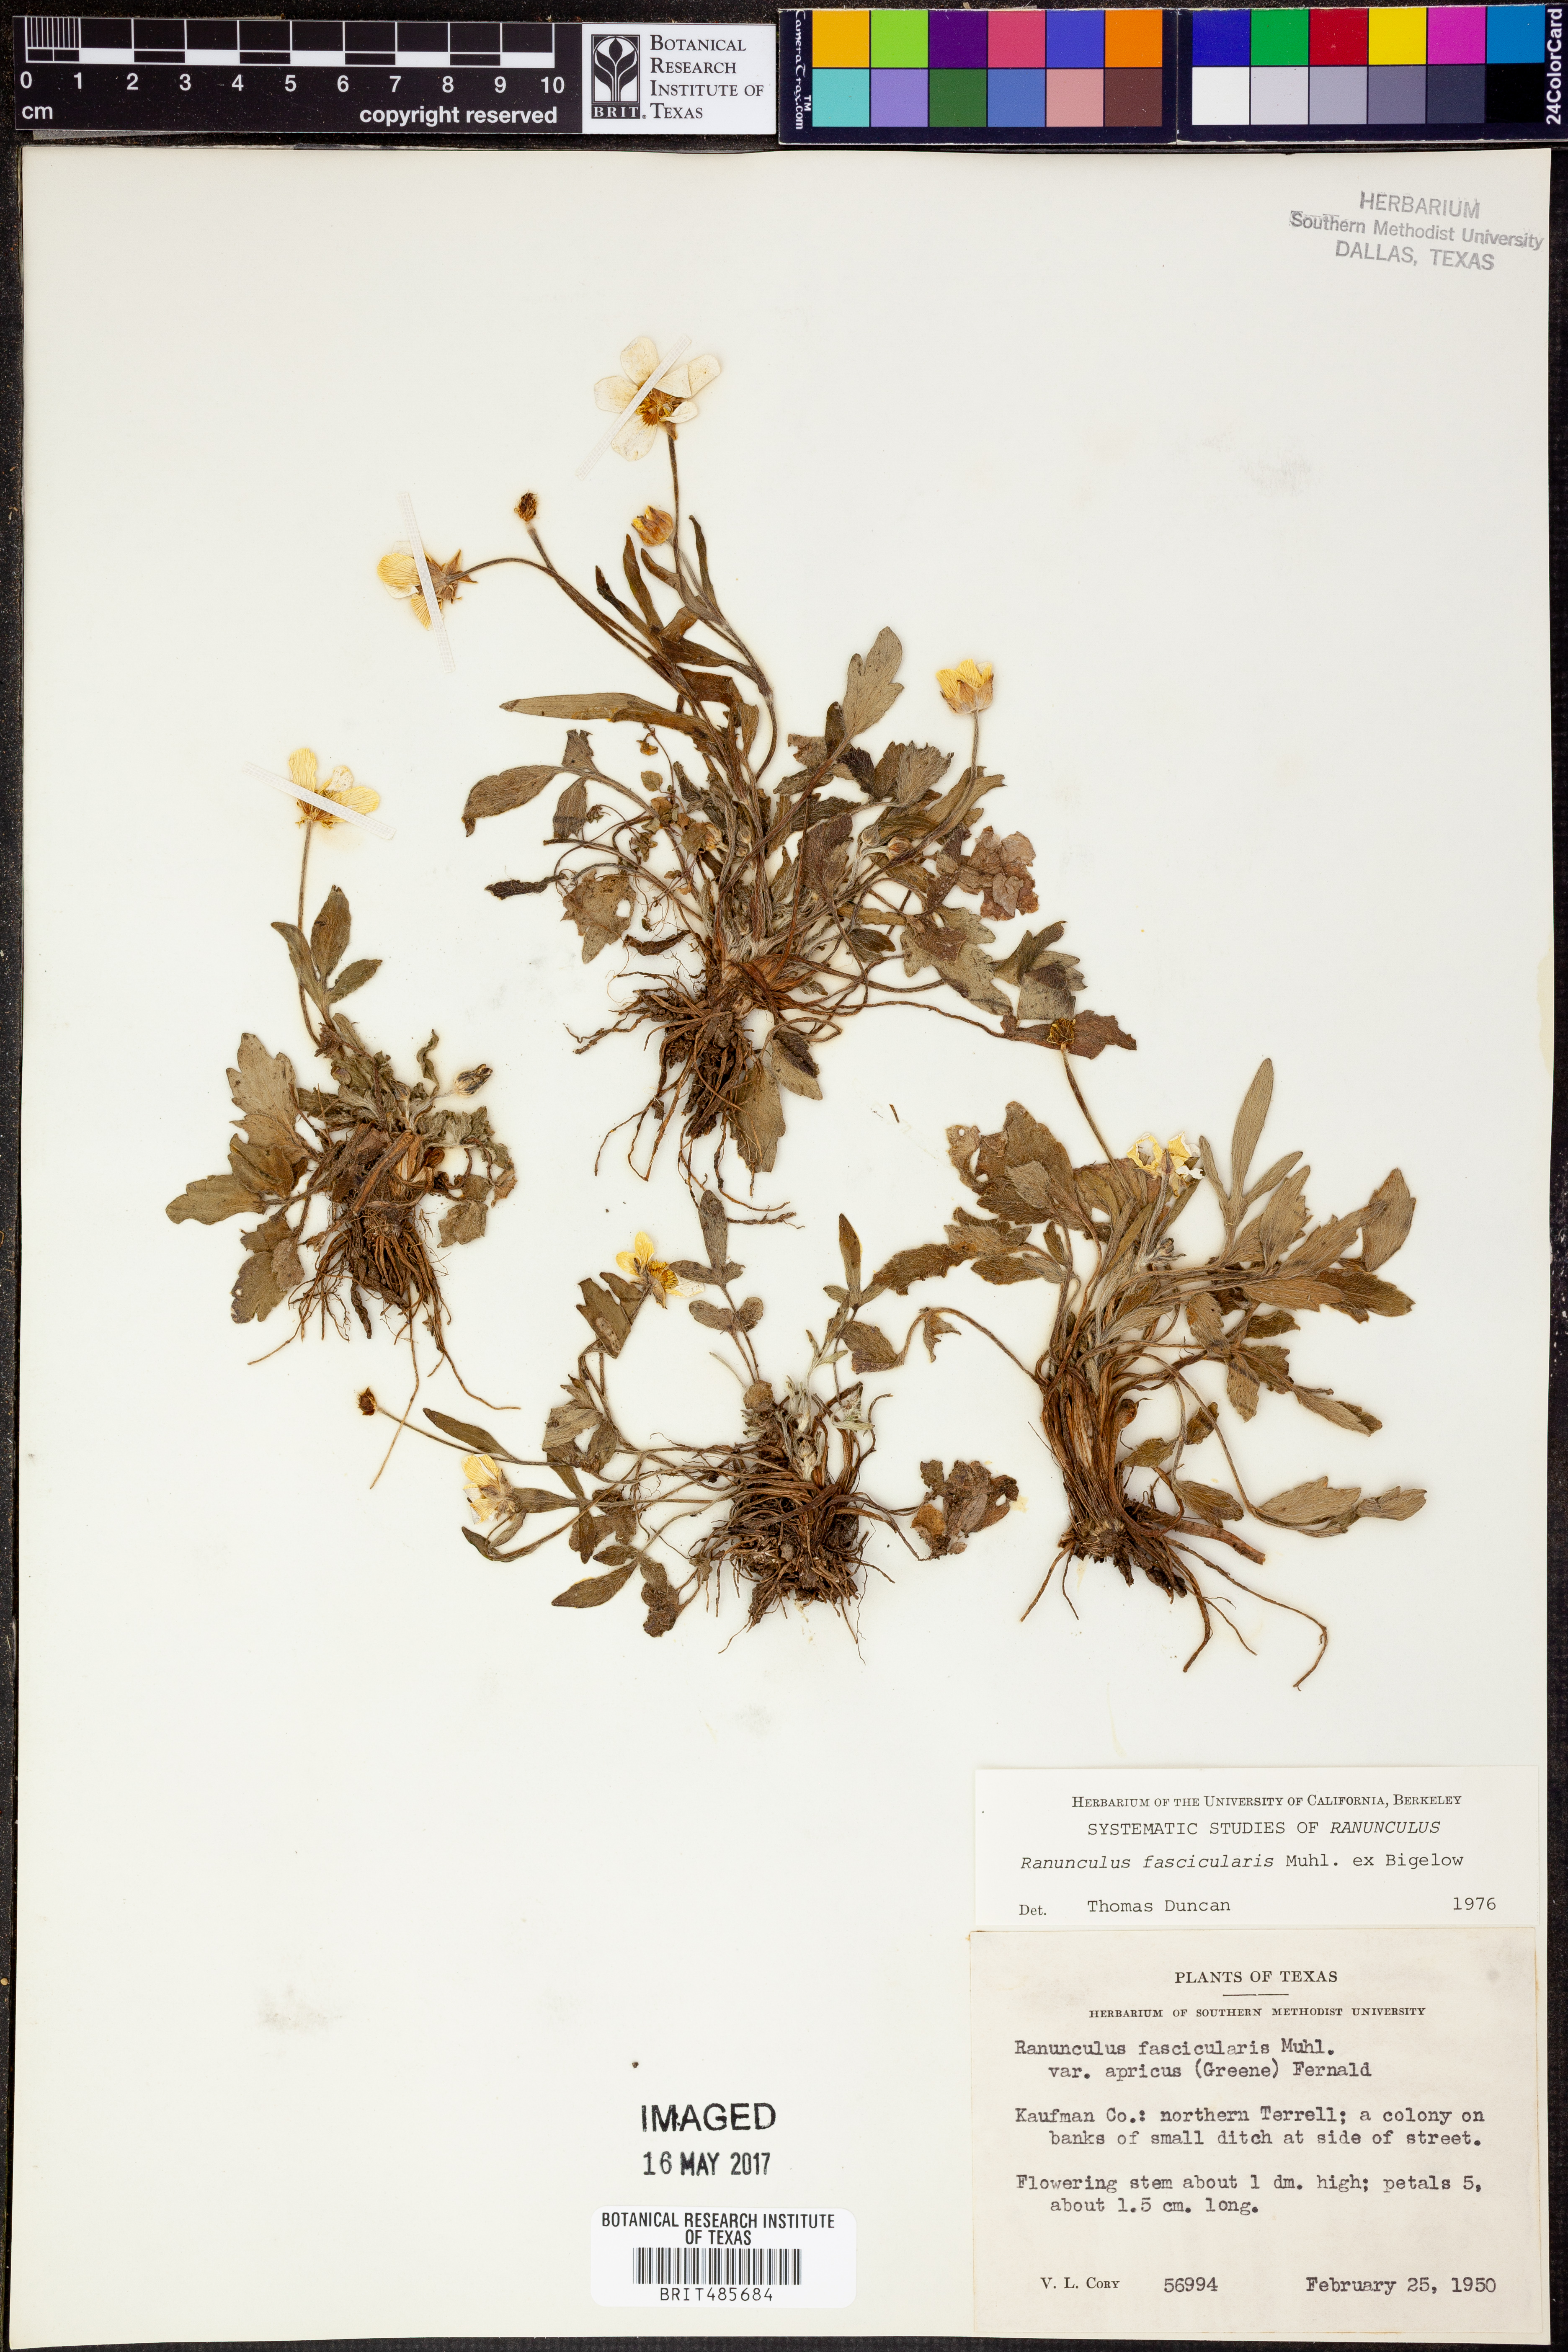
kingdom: Plantae
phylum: Tracheophyta
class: Magnoliopsida
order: Ranunculales
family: Ranunculaceae
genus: Ranunculus
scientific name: Ranunculus fascicularis
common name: Early buttercup
